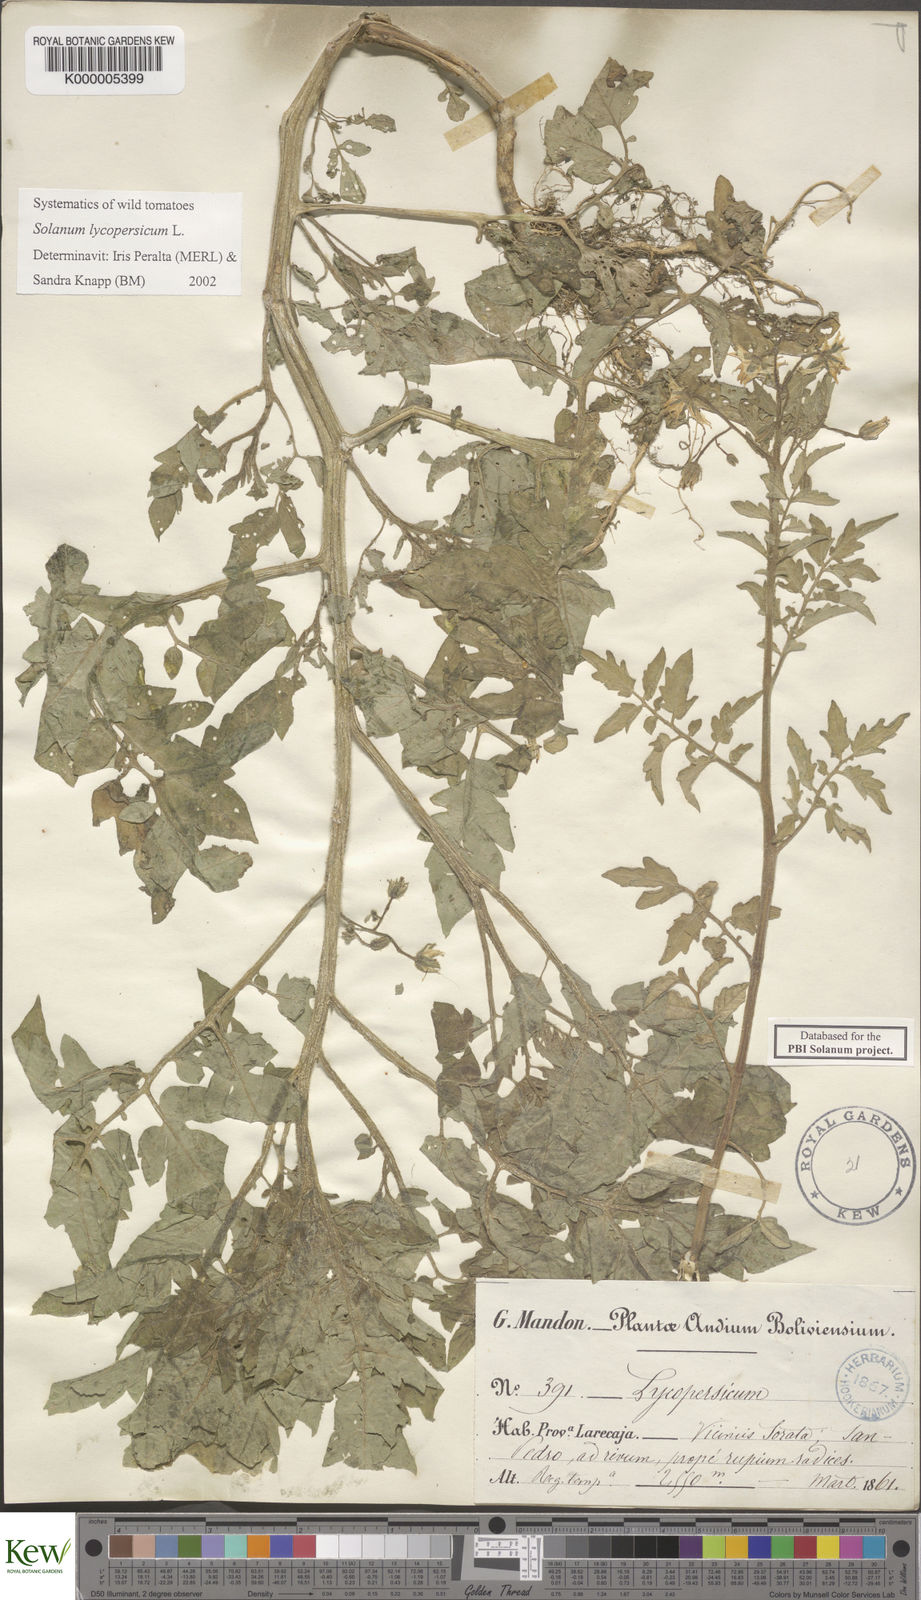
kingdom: Plantae
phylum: Tracheophyta
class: Magnoliopsida
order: Solanales
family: Solanaceae
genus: Solanum
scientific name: Solanum lycopersicum
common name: Garden tomato
